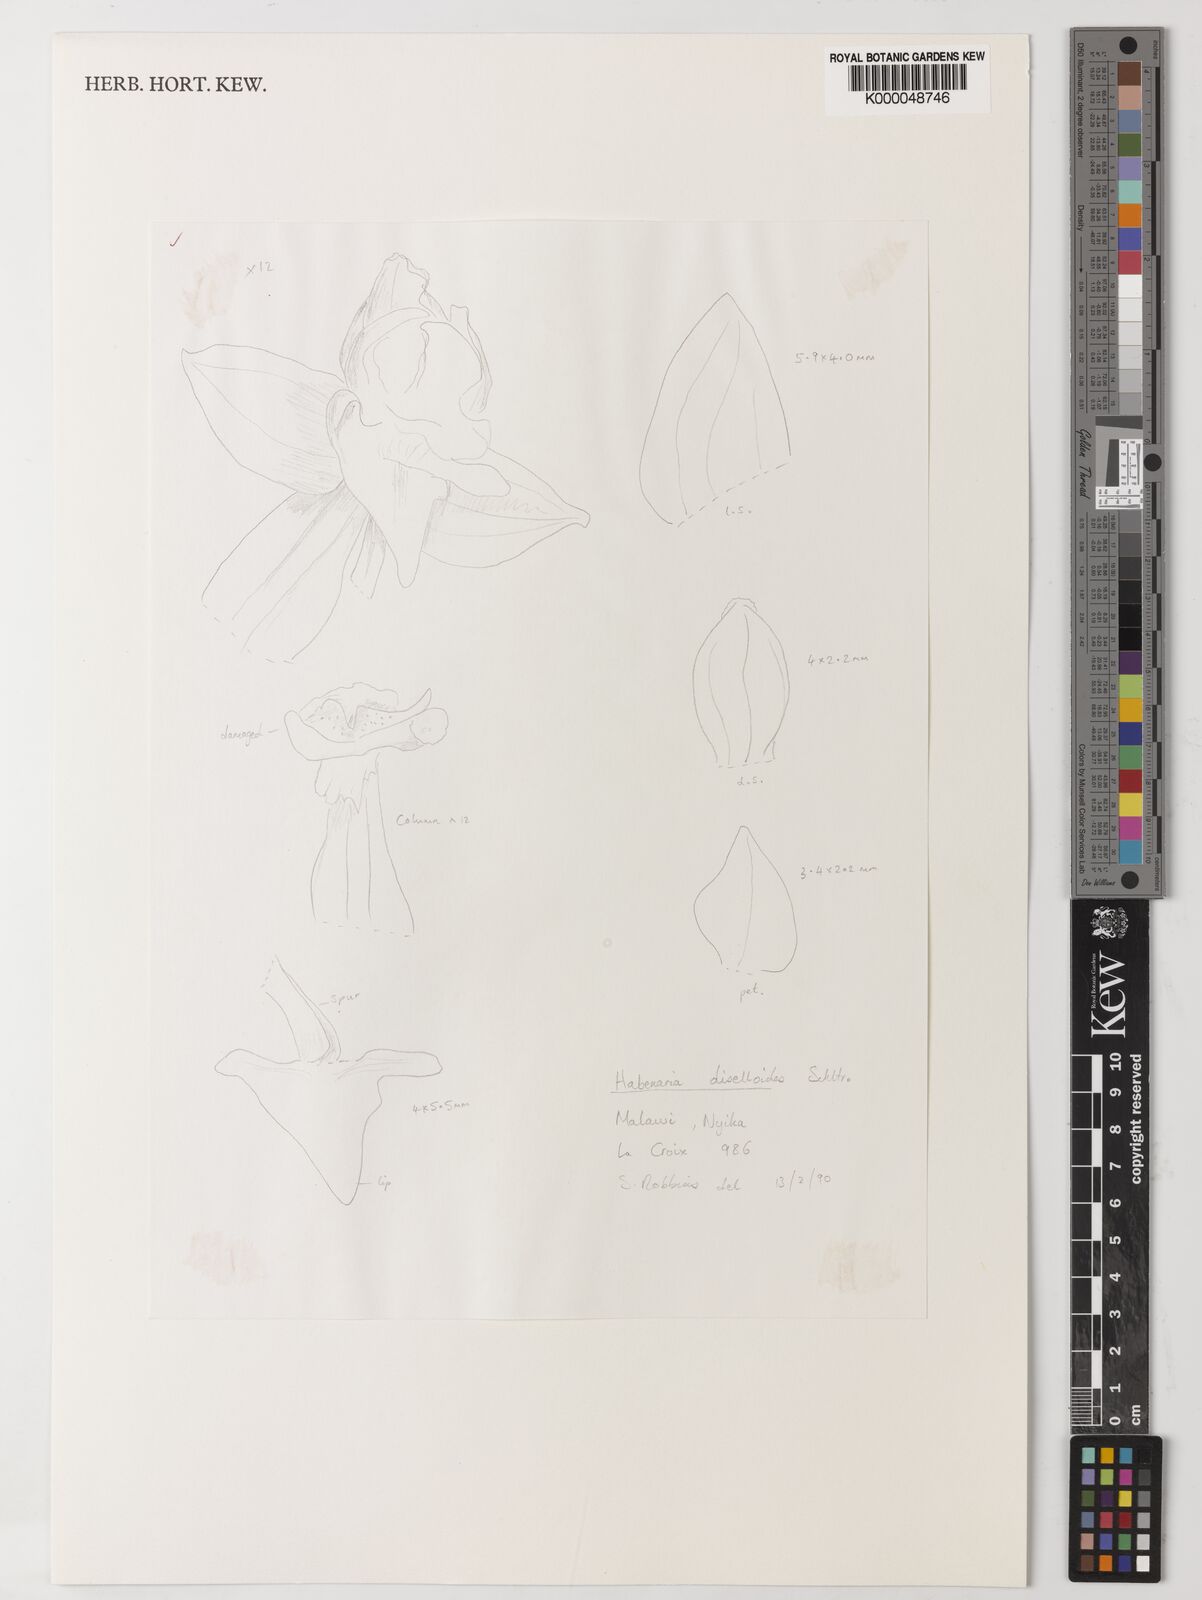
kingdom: Plantae
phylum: Tracheophyta
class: Liliopsida
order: Asparagales
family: Orchidaceae
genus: Habenaria
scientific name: Habenaria diselloides
